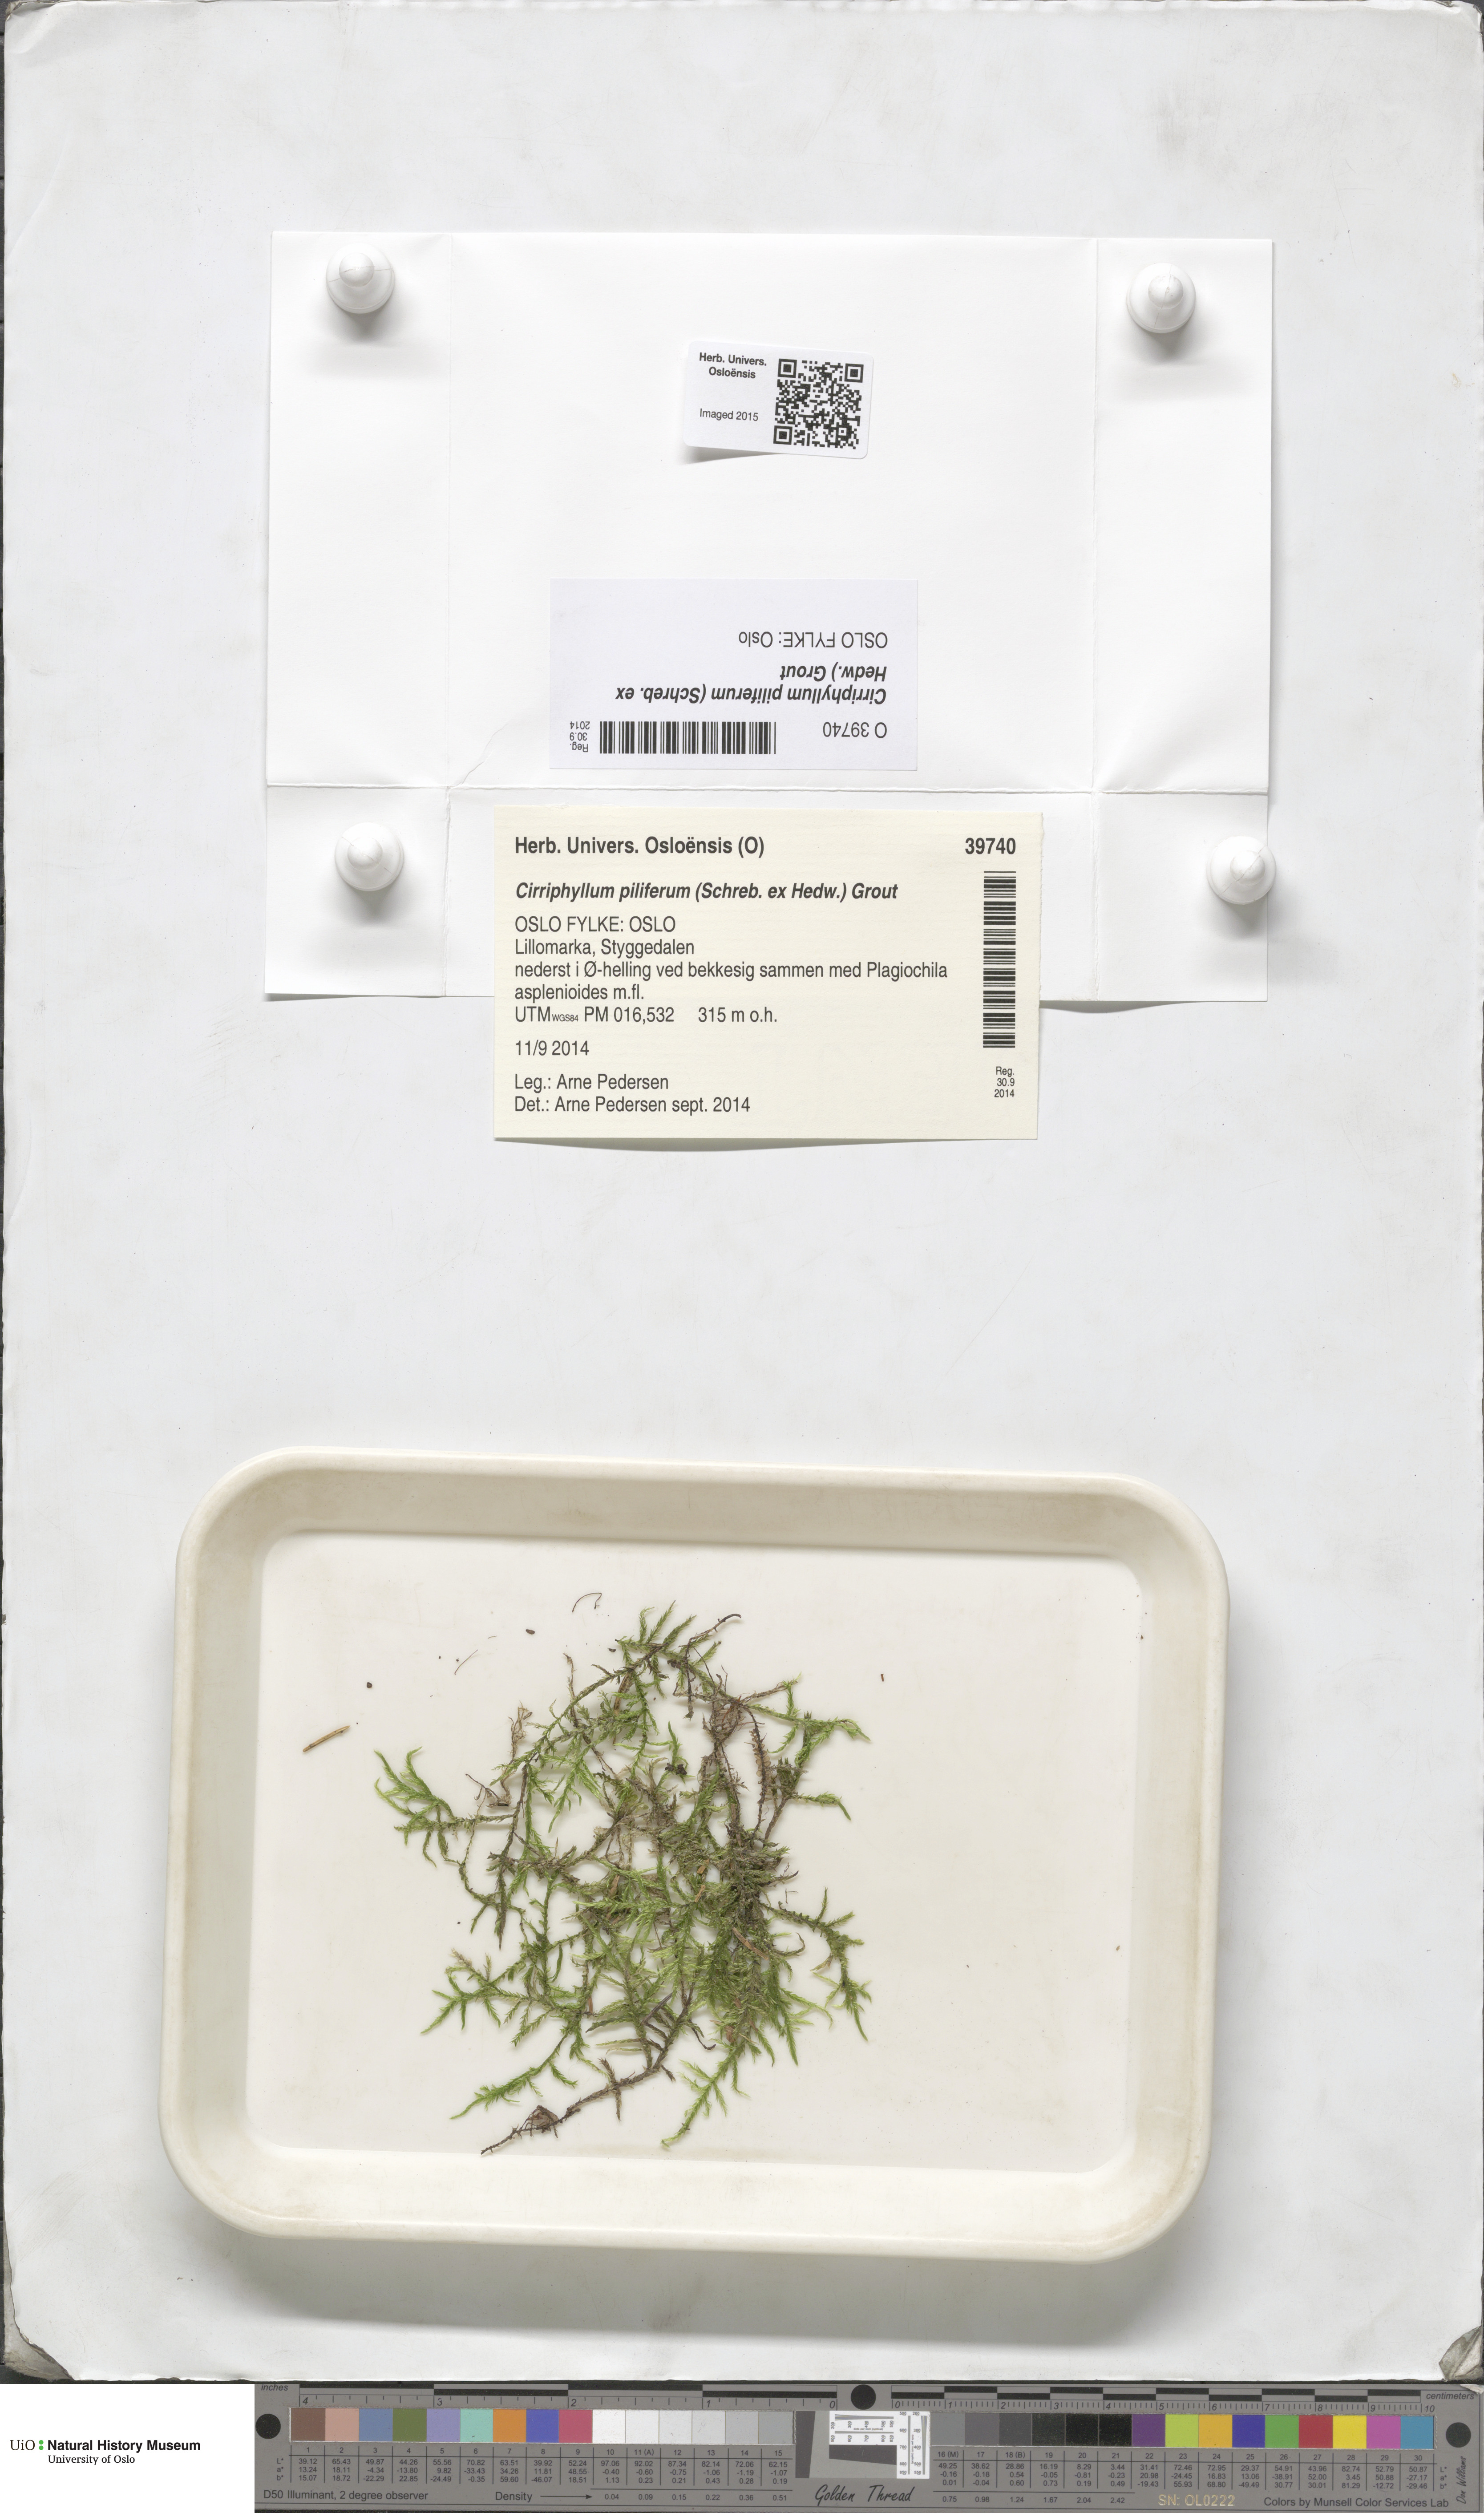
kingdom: Plantae
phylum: Bryophyta
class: Bryopsida
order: Hypnales
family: Brachytheciaceae
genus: Cirriphyllum
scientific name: Cirriphyllum piliferum
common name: Hair-pointed moss
